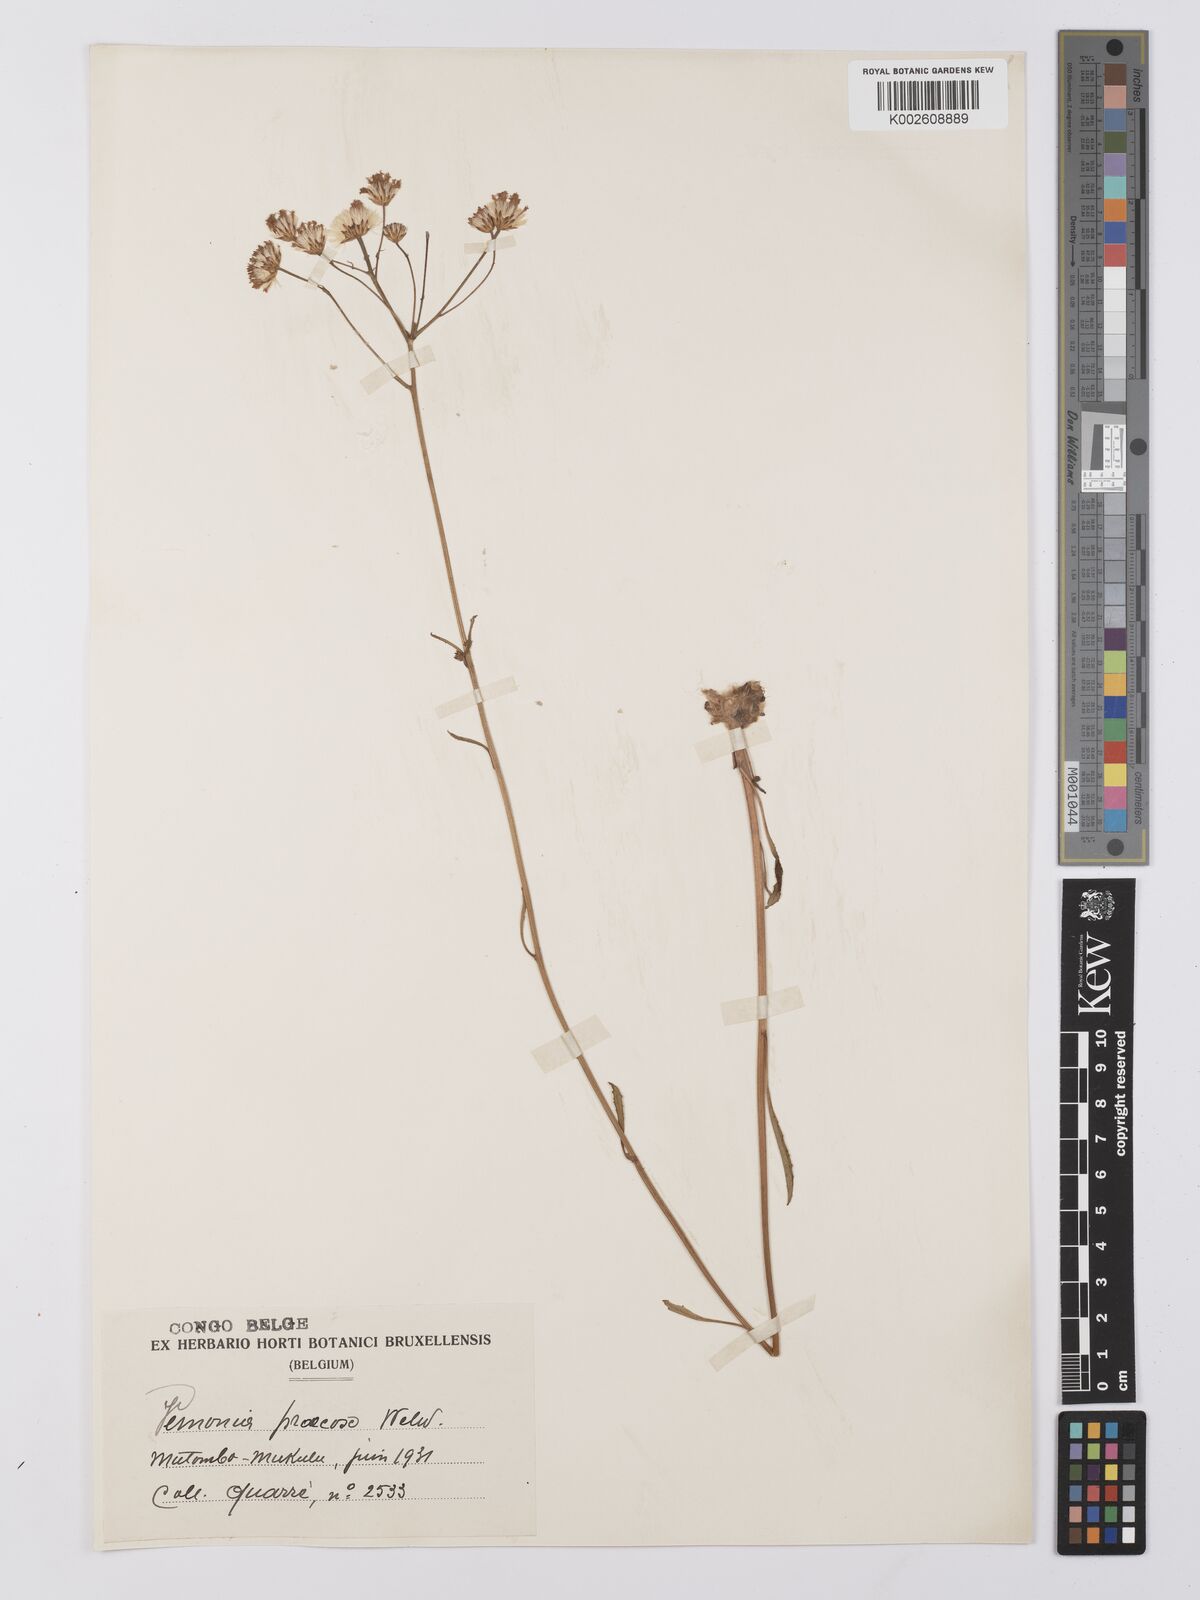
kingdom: Plantae
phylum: Tracheophyta
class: Magnoliopsida
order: Asterales
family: Asteraceae
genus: Vernonella
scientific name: Vernonella praecox
